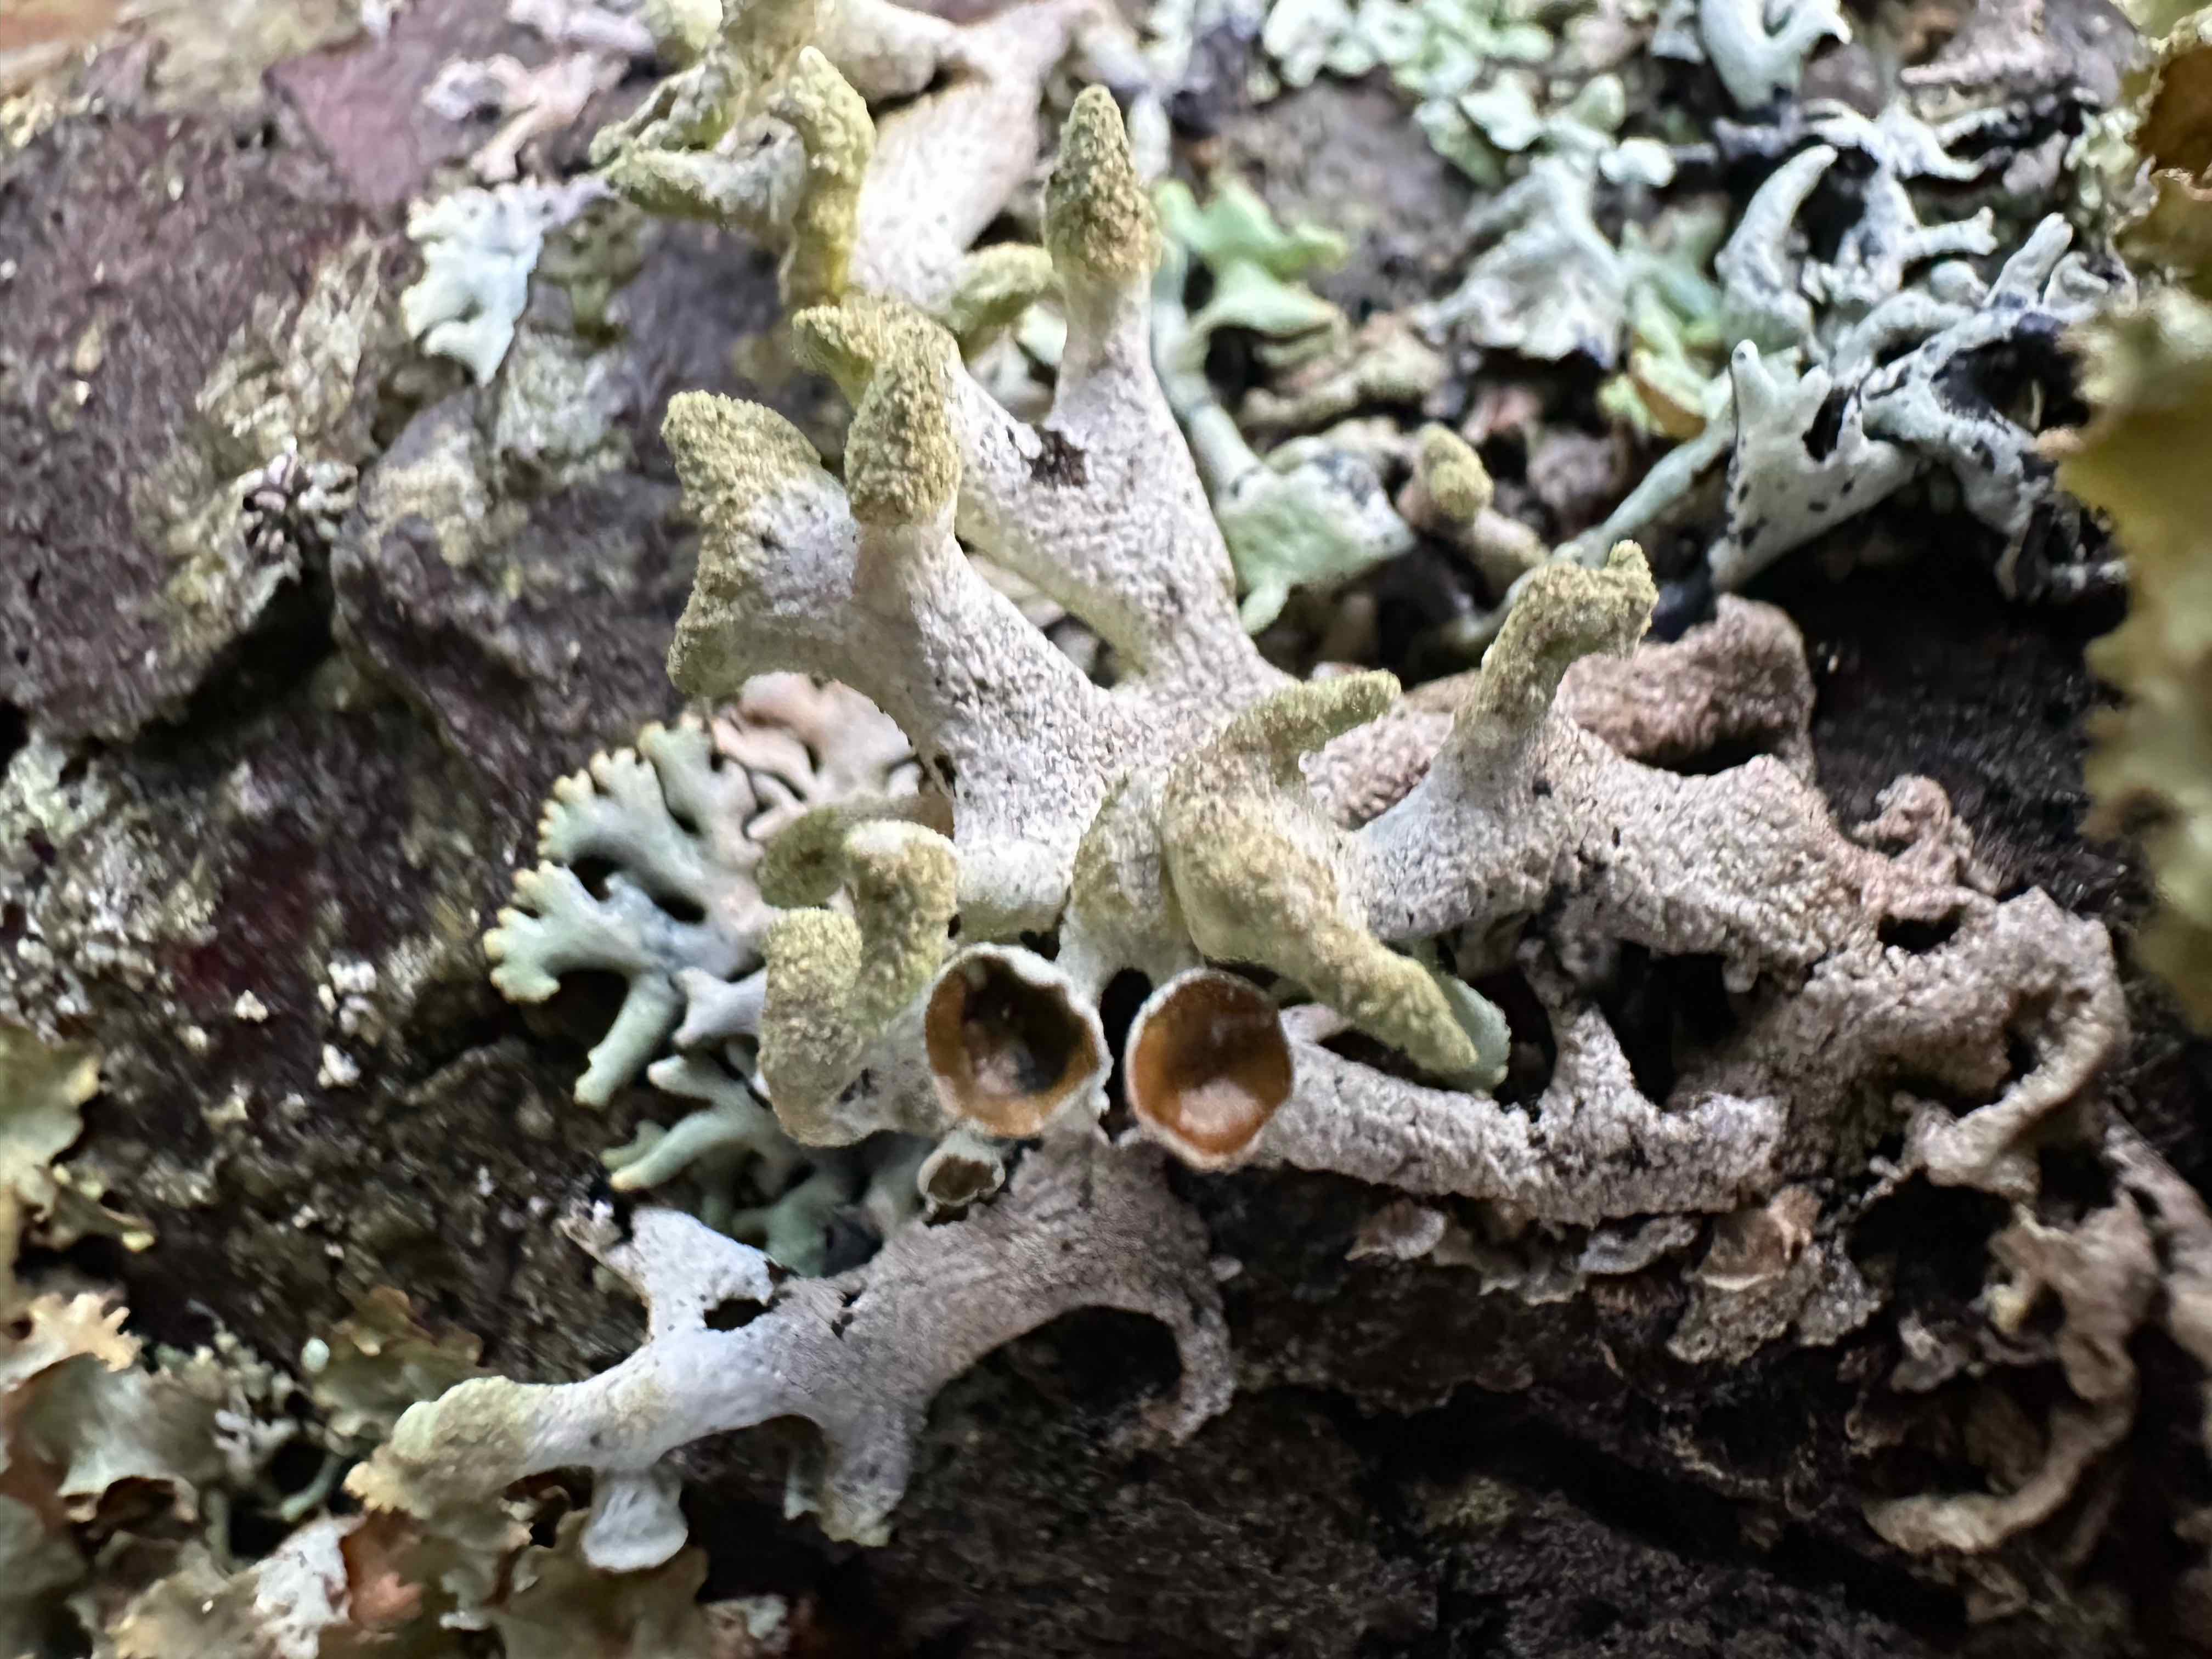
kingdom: Fungi
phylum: Ascomycota
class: Lecanoromycetes
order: Lecanorales
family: Parmeliaceae
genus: Hypogymnia
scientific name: Hypogymnia tubulosa
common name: finger-kvistlav
